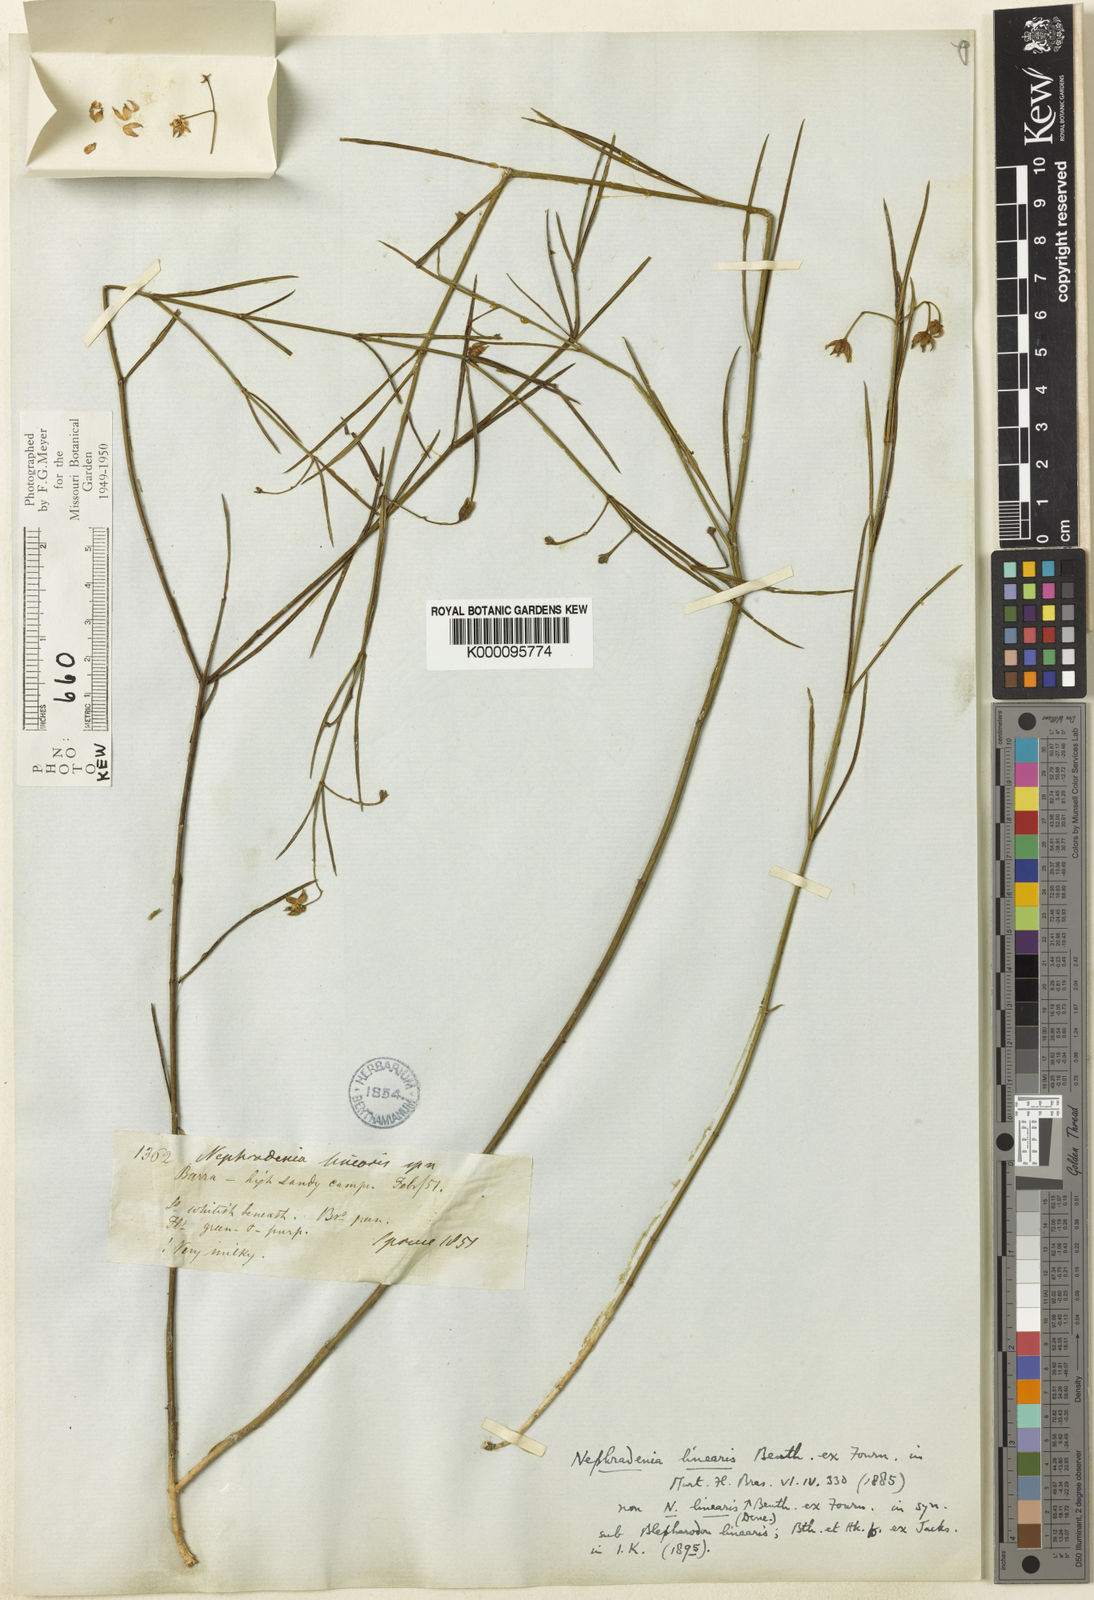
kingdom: Plantae
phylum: Tracheophyta
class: Magnoliopsida
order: Gentianales
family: Apocynaceae
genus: Blepharodon
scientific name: Blepharodon lineare
